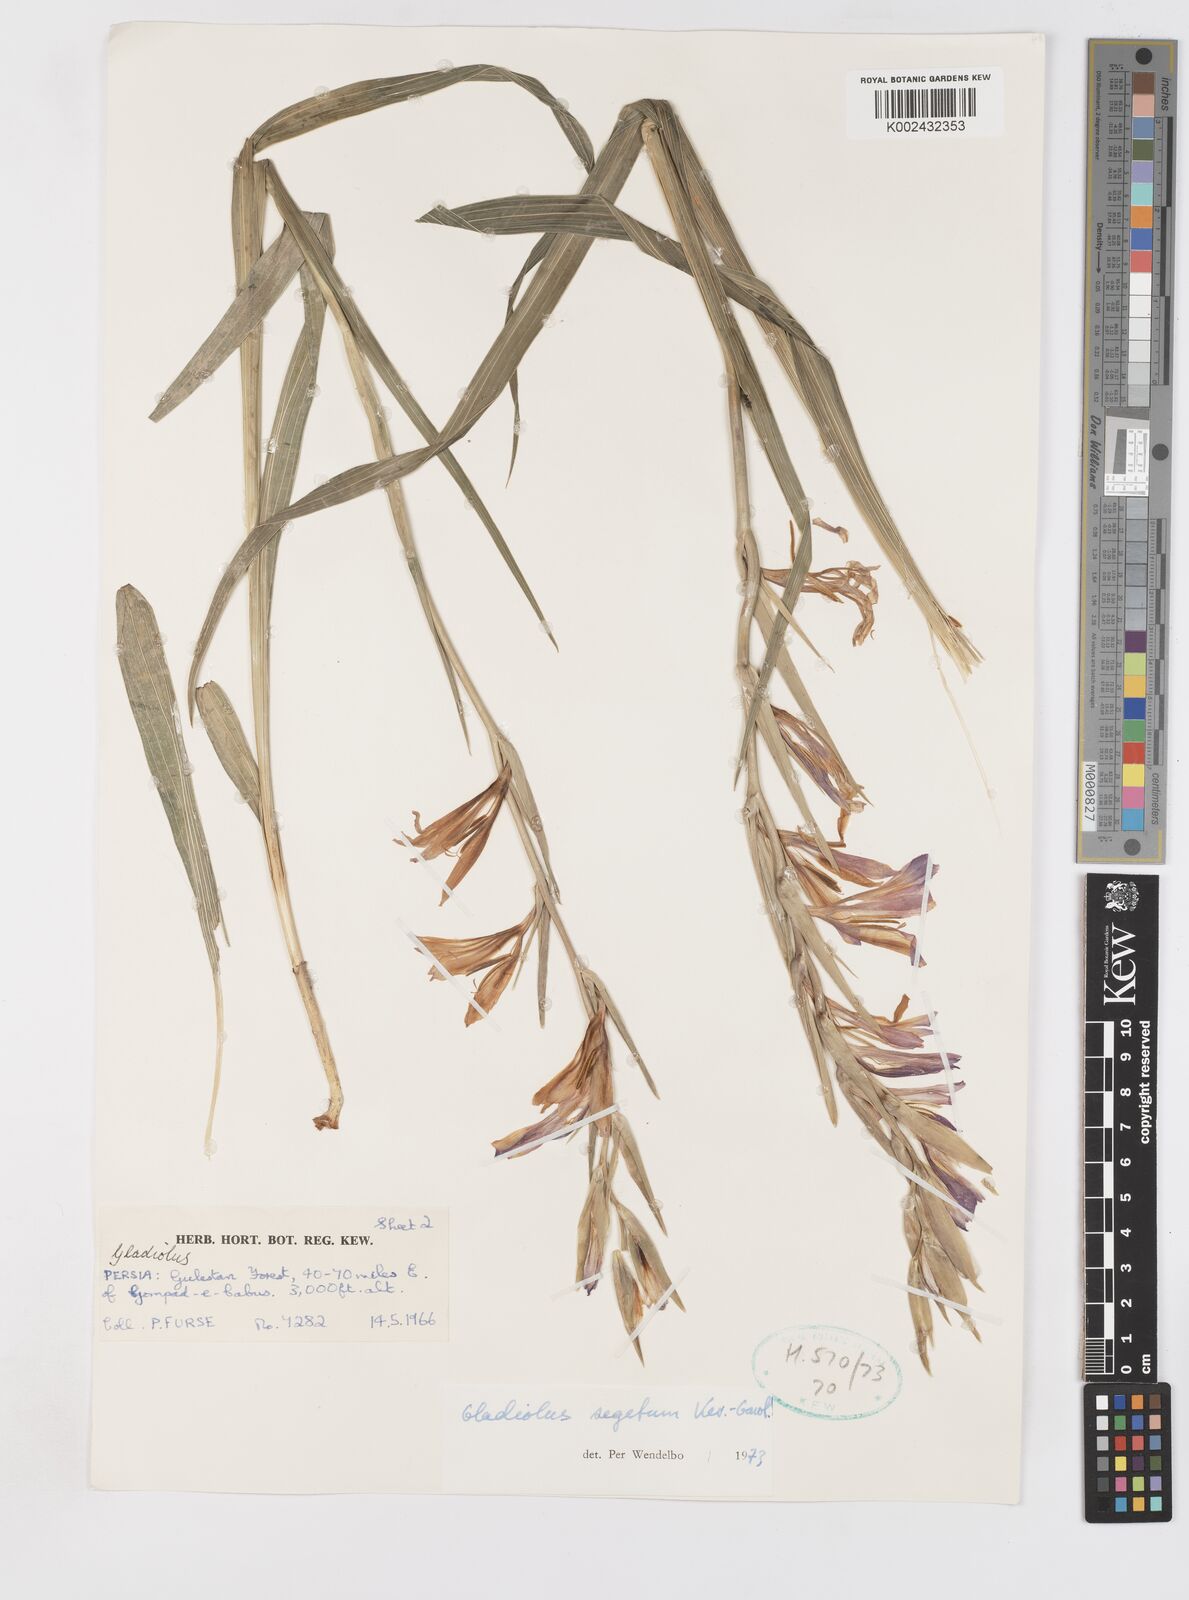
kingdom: Plantae
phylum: Tracheophyta
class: Liliopsida
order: Asparagales
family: Iridaceae
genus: Gladiolus
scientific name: Gladiolus italicus
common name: Field gladiolus
